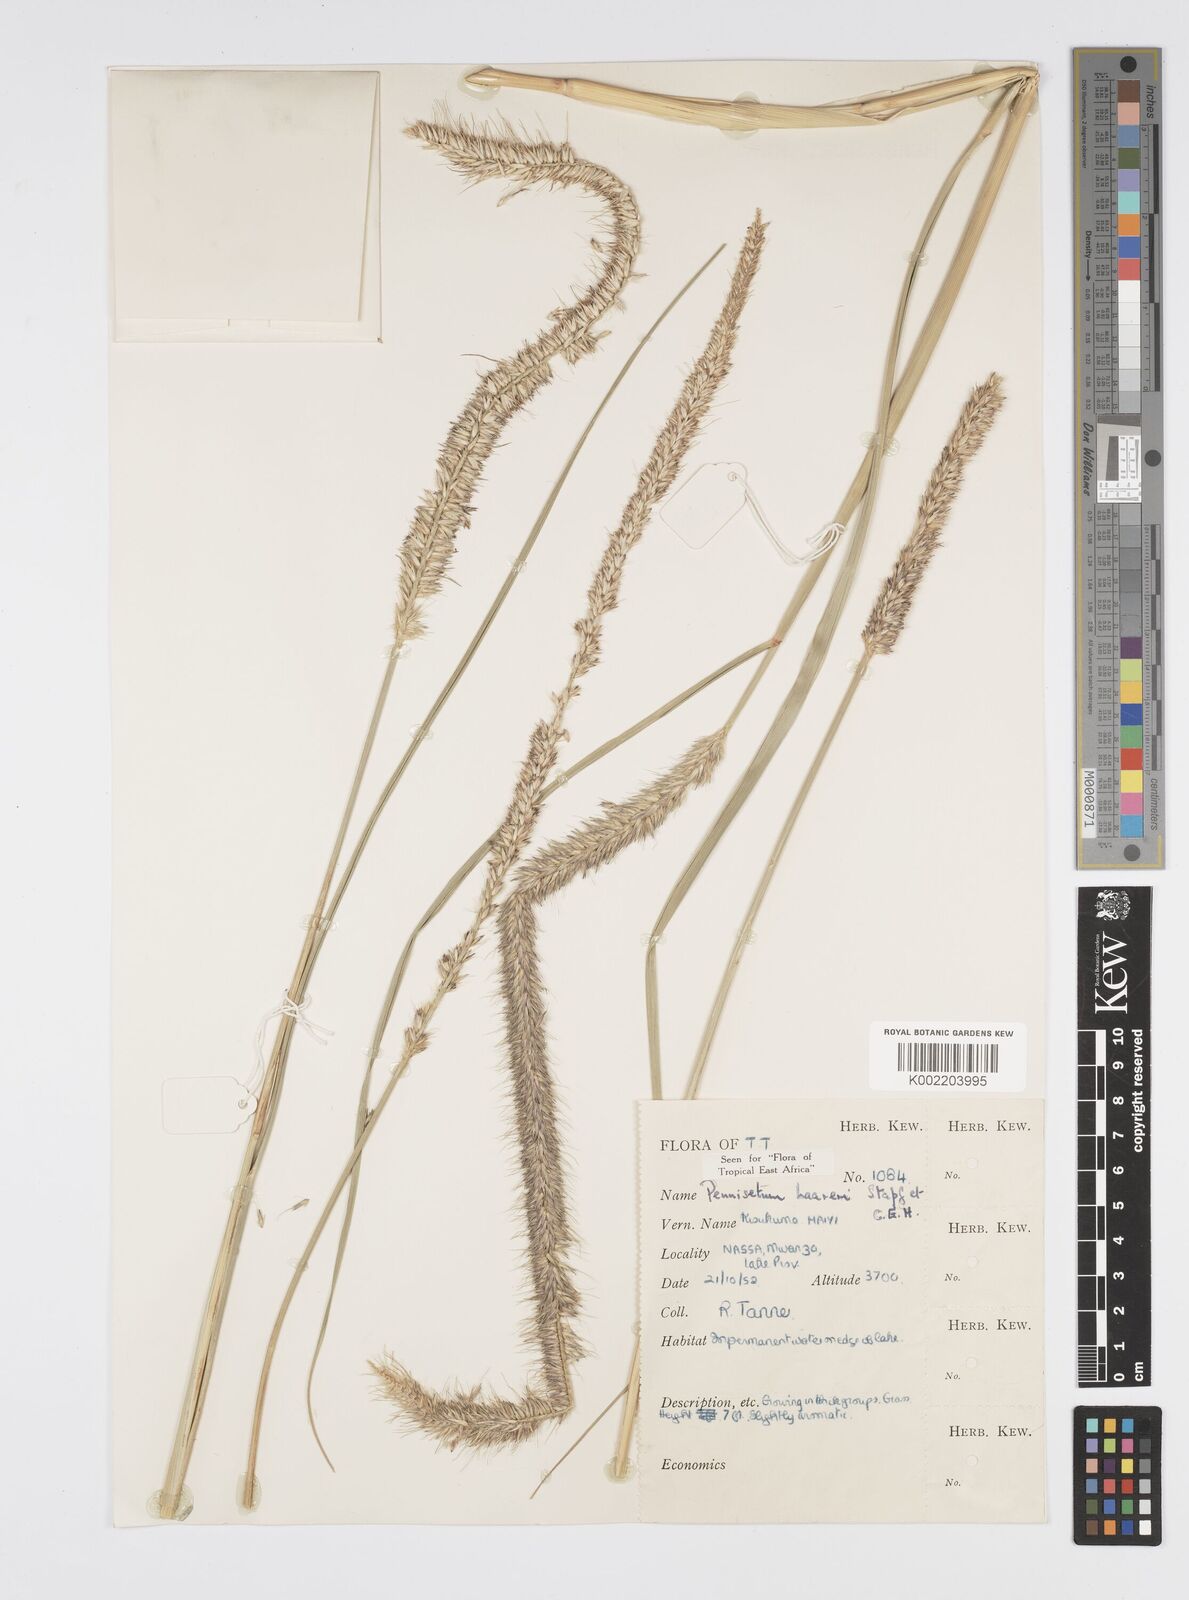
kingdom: Plantae
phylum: Tracheophyta
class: Liliopsida
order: Poales
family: Poaceae
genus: Cenchrus
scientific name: Cenchrus caudatus
